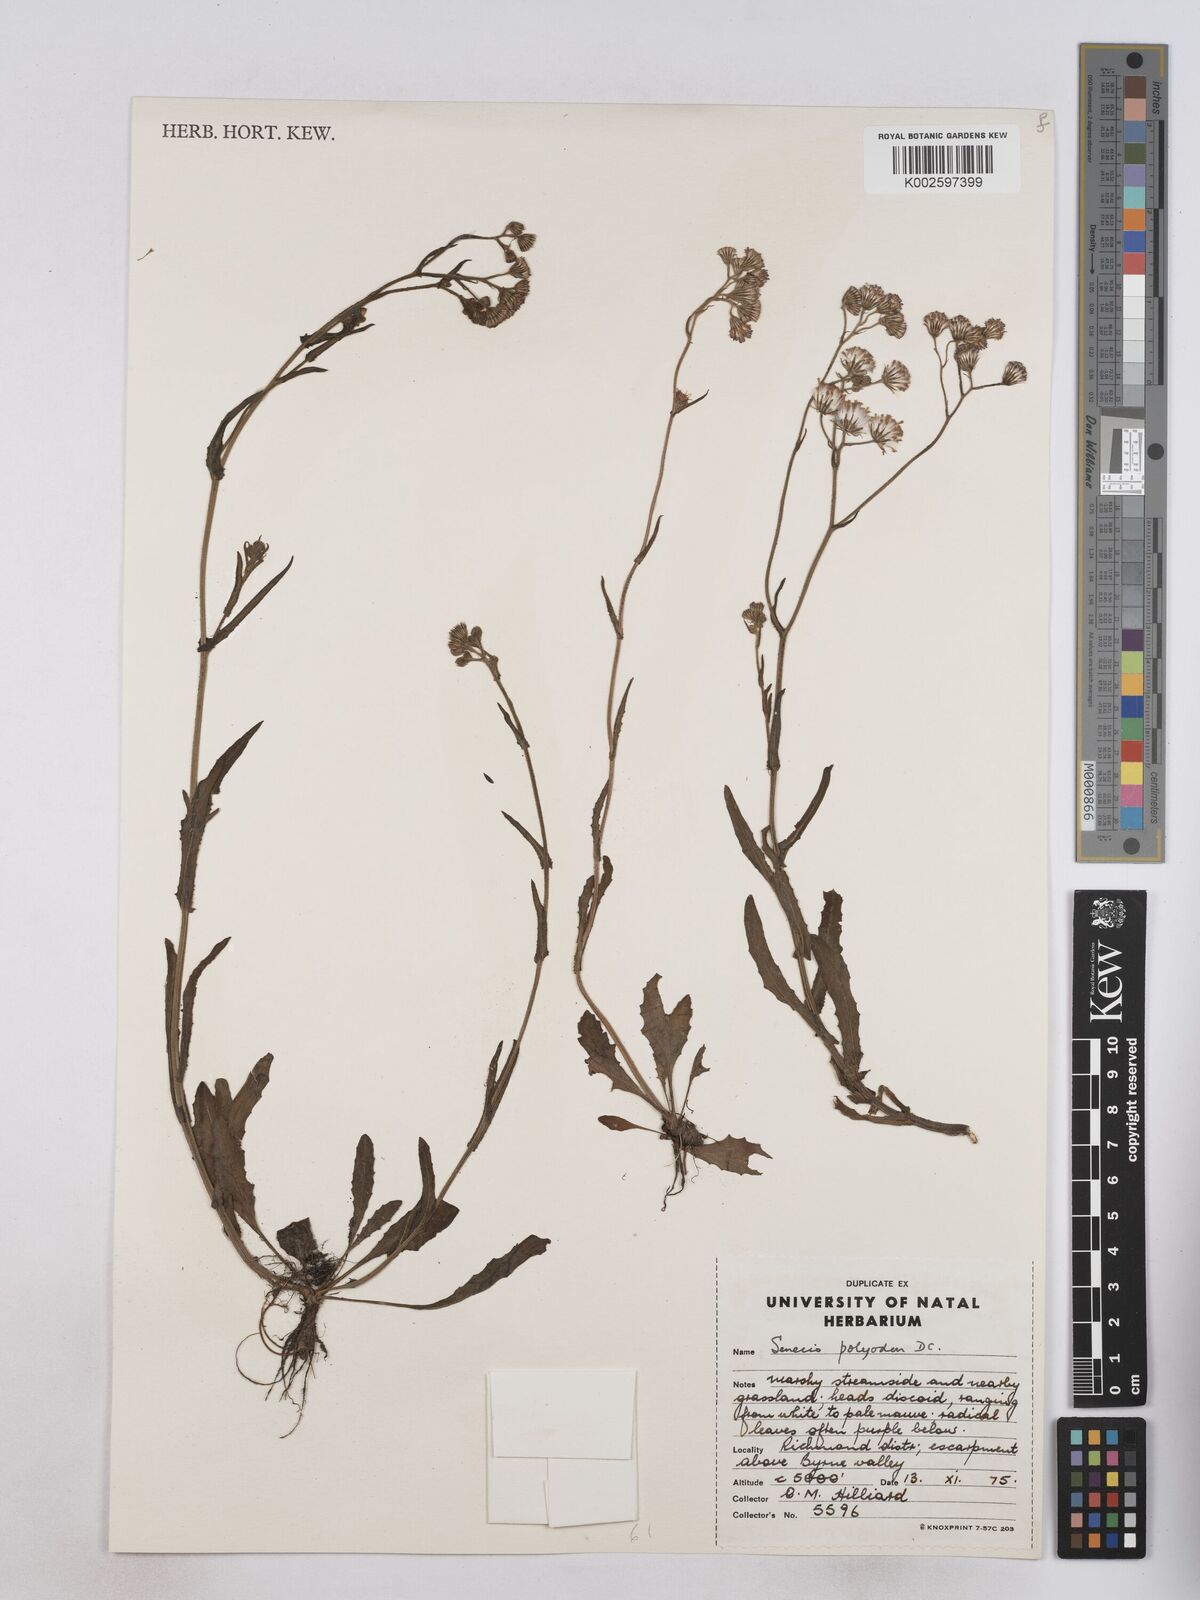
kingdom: Plantae
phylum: Tracheophyta
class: Magnoliopsida
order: Asterales
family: Asteraceae
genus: Senecio
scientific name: Senecio polyodon
